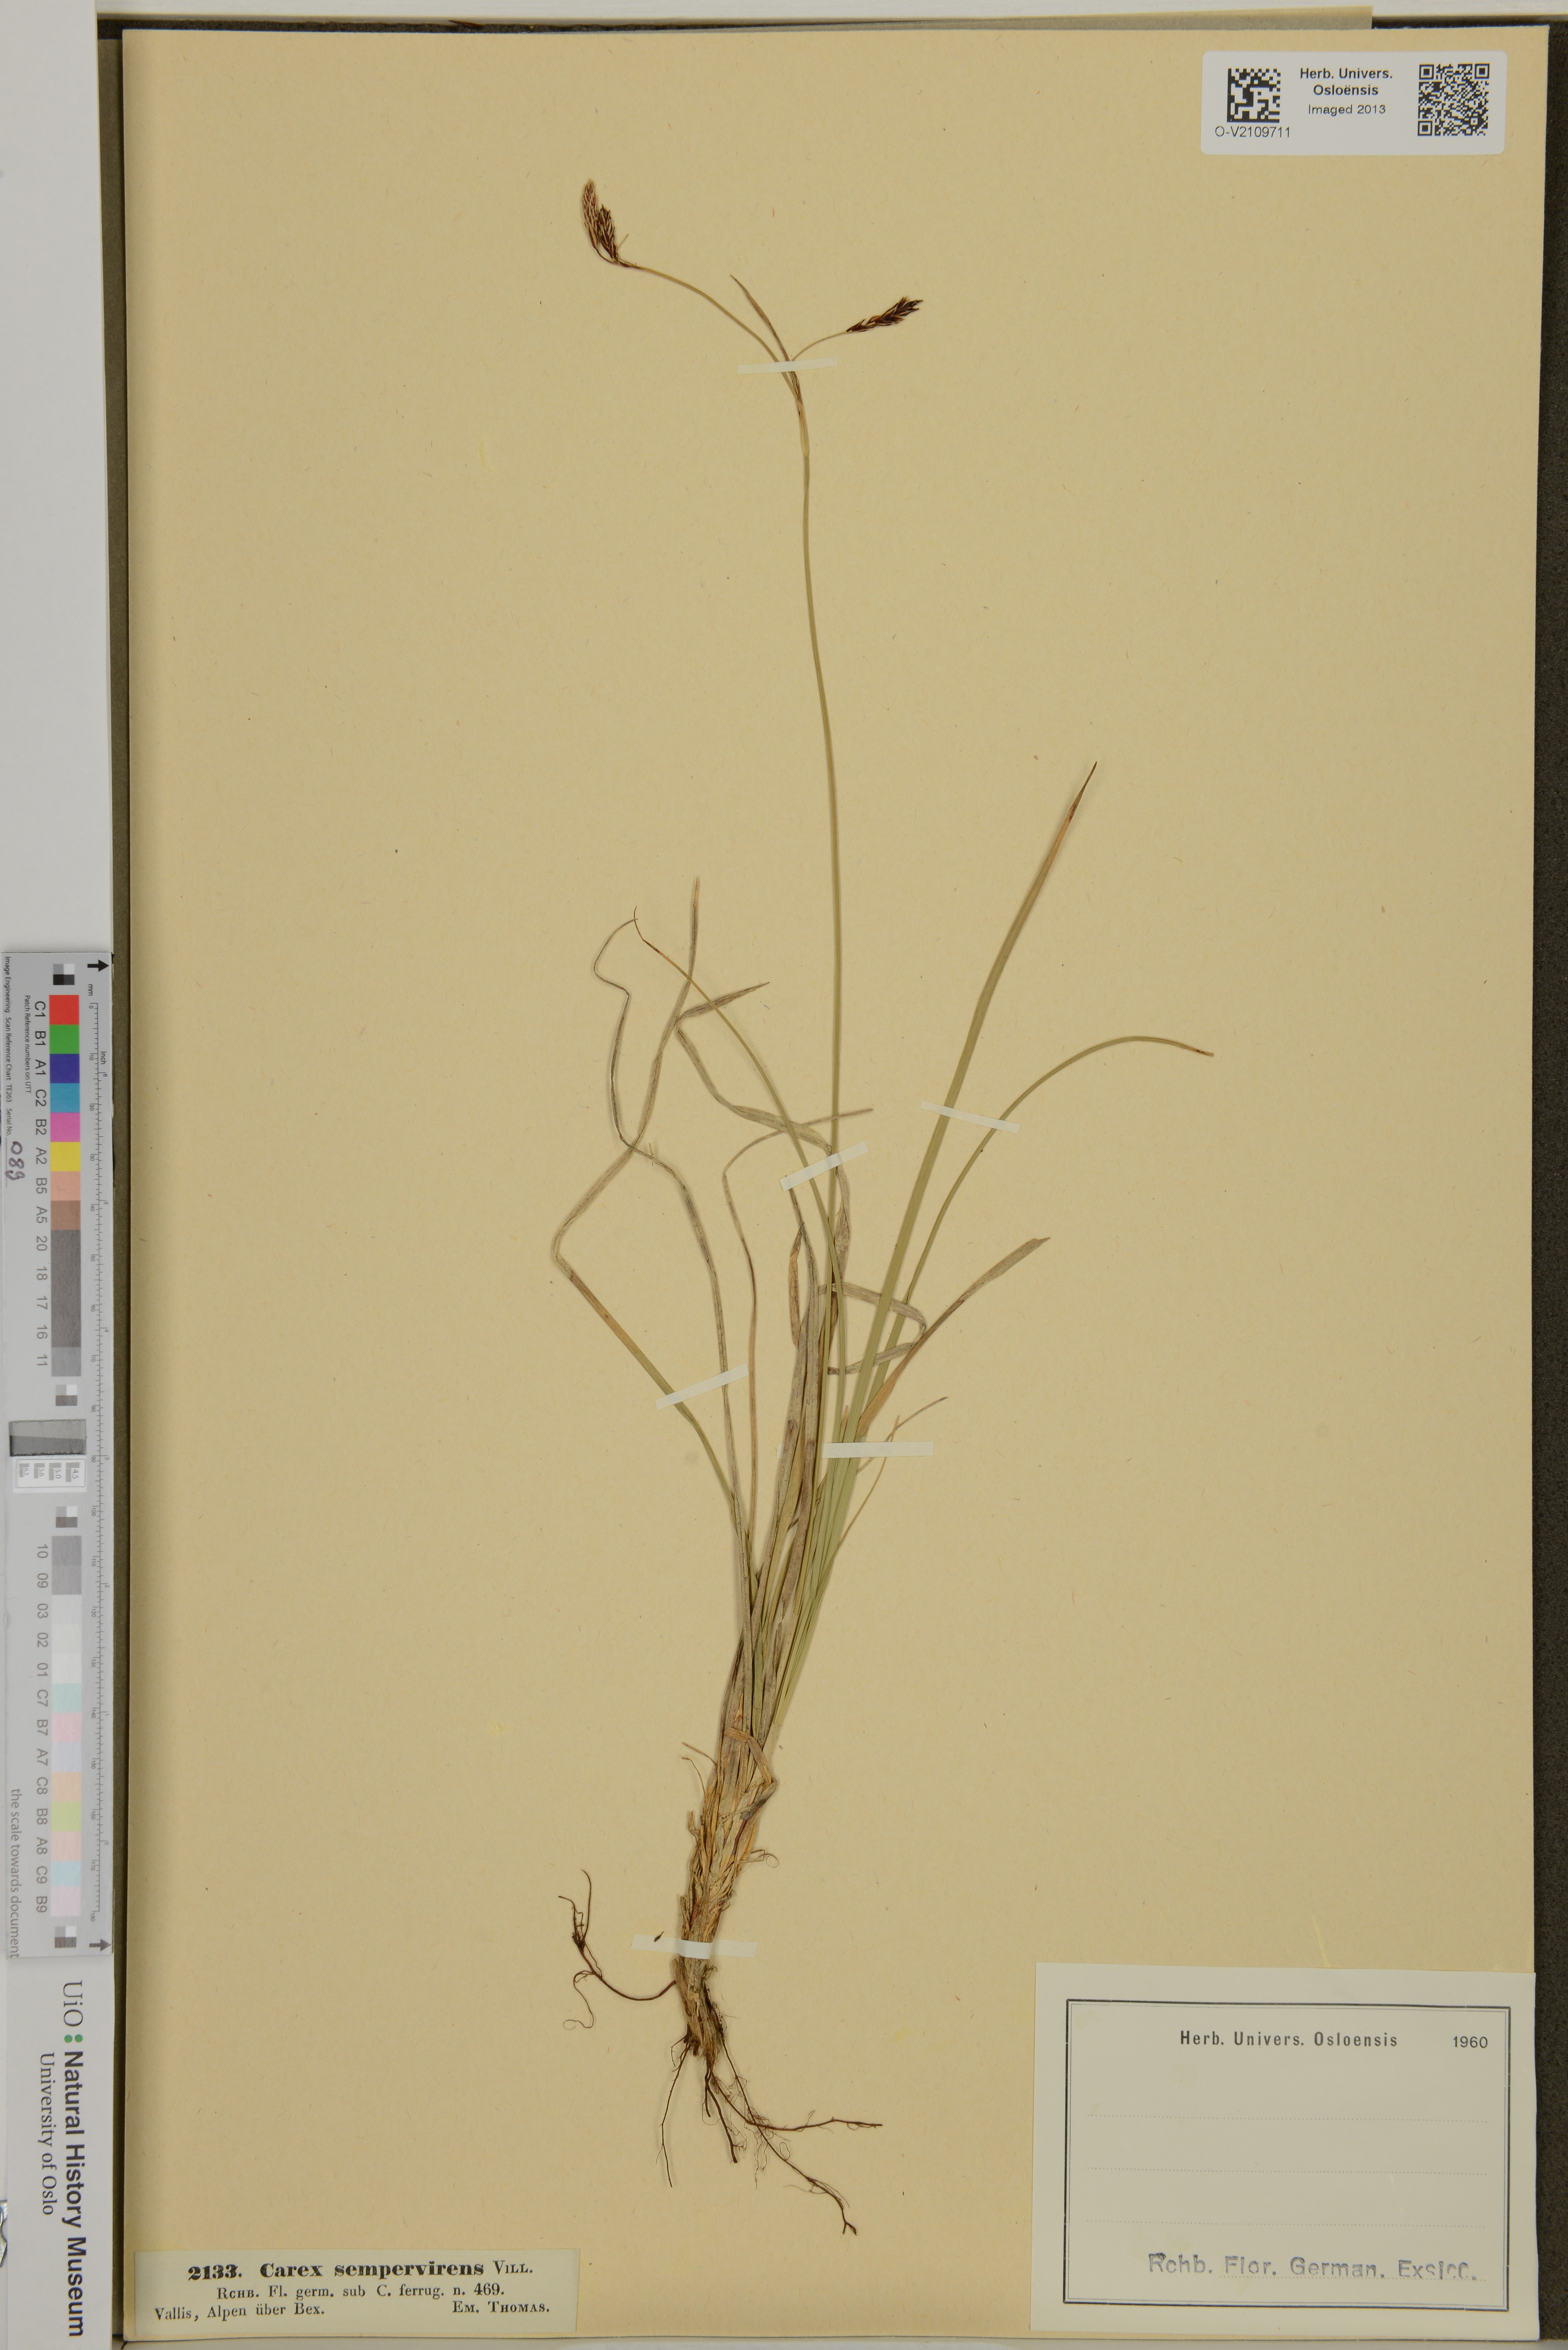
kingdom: Plantae
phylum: Tracheophyta
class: Liliopsida
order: Poales
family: Cyperaceae
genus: Carex
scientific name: Carex sempervirens
